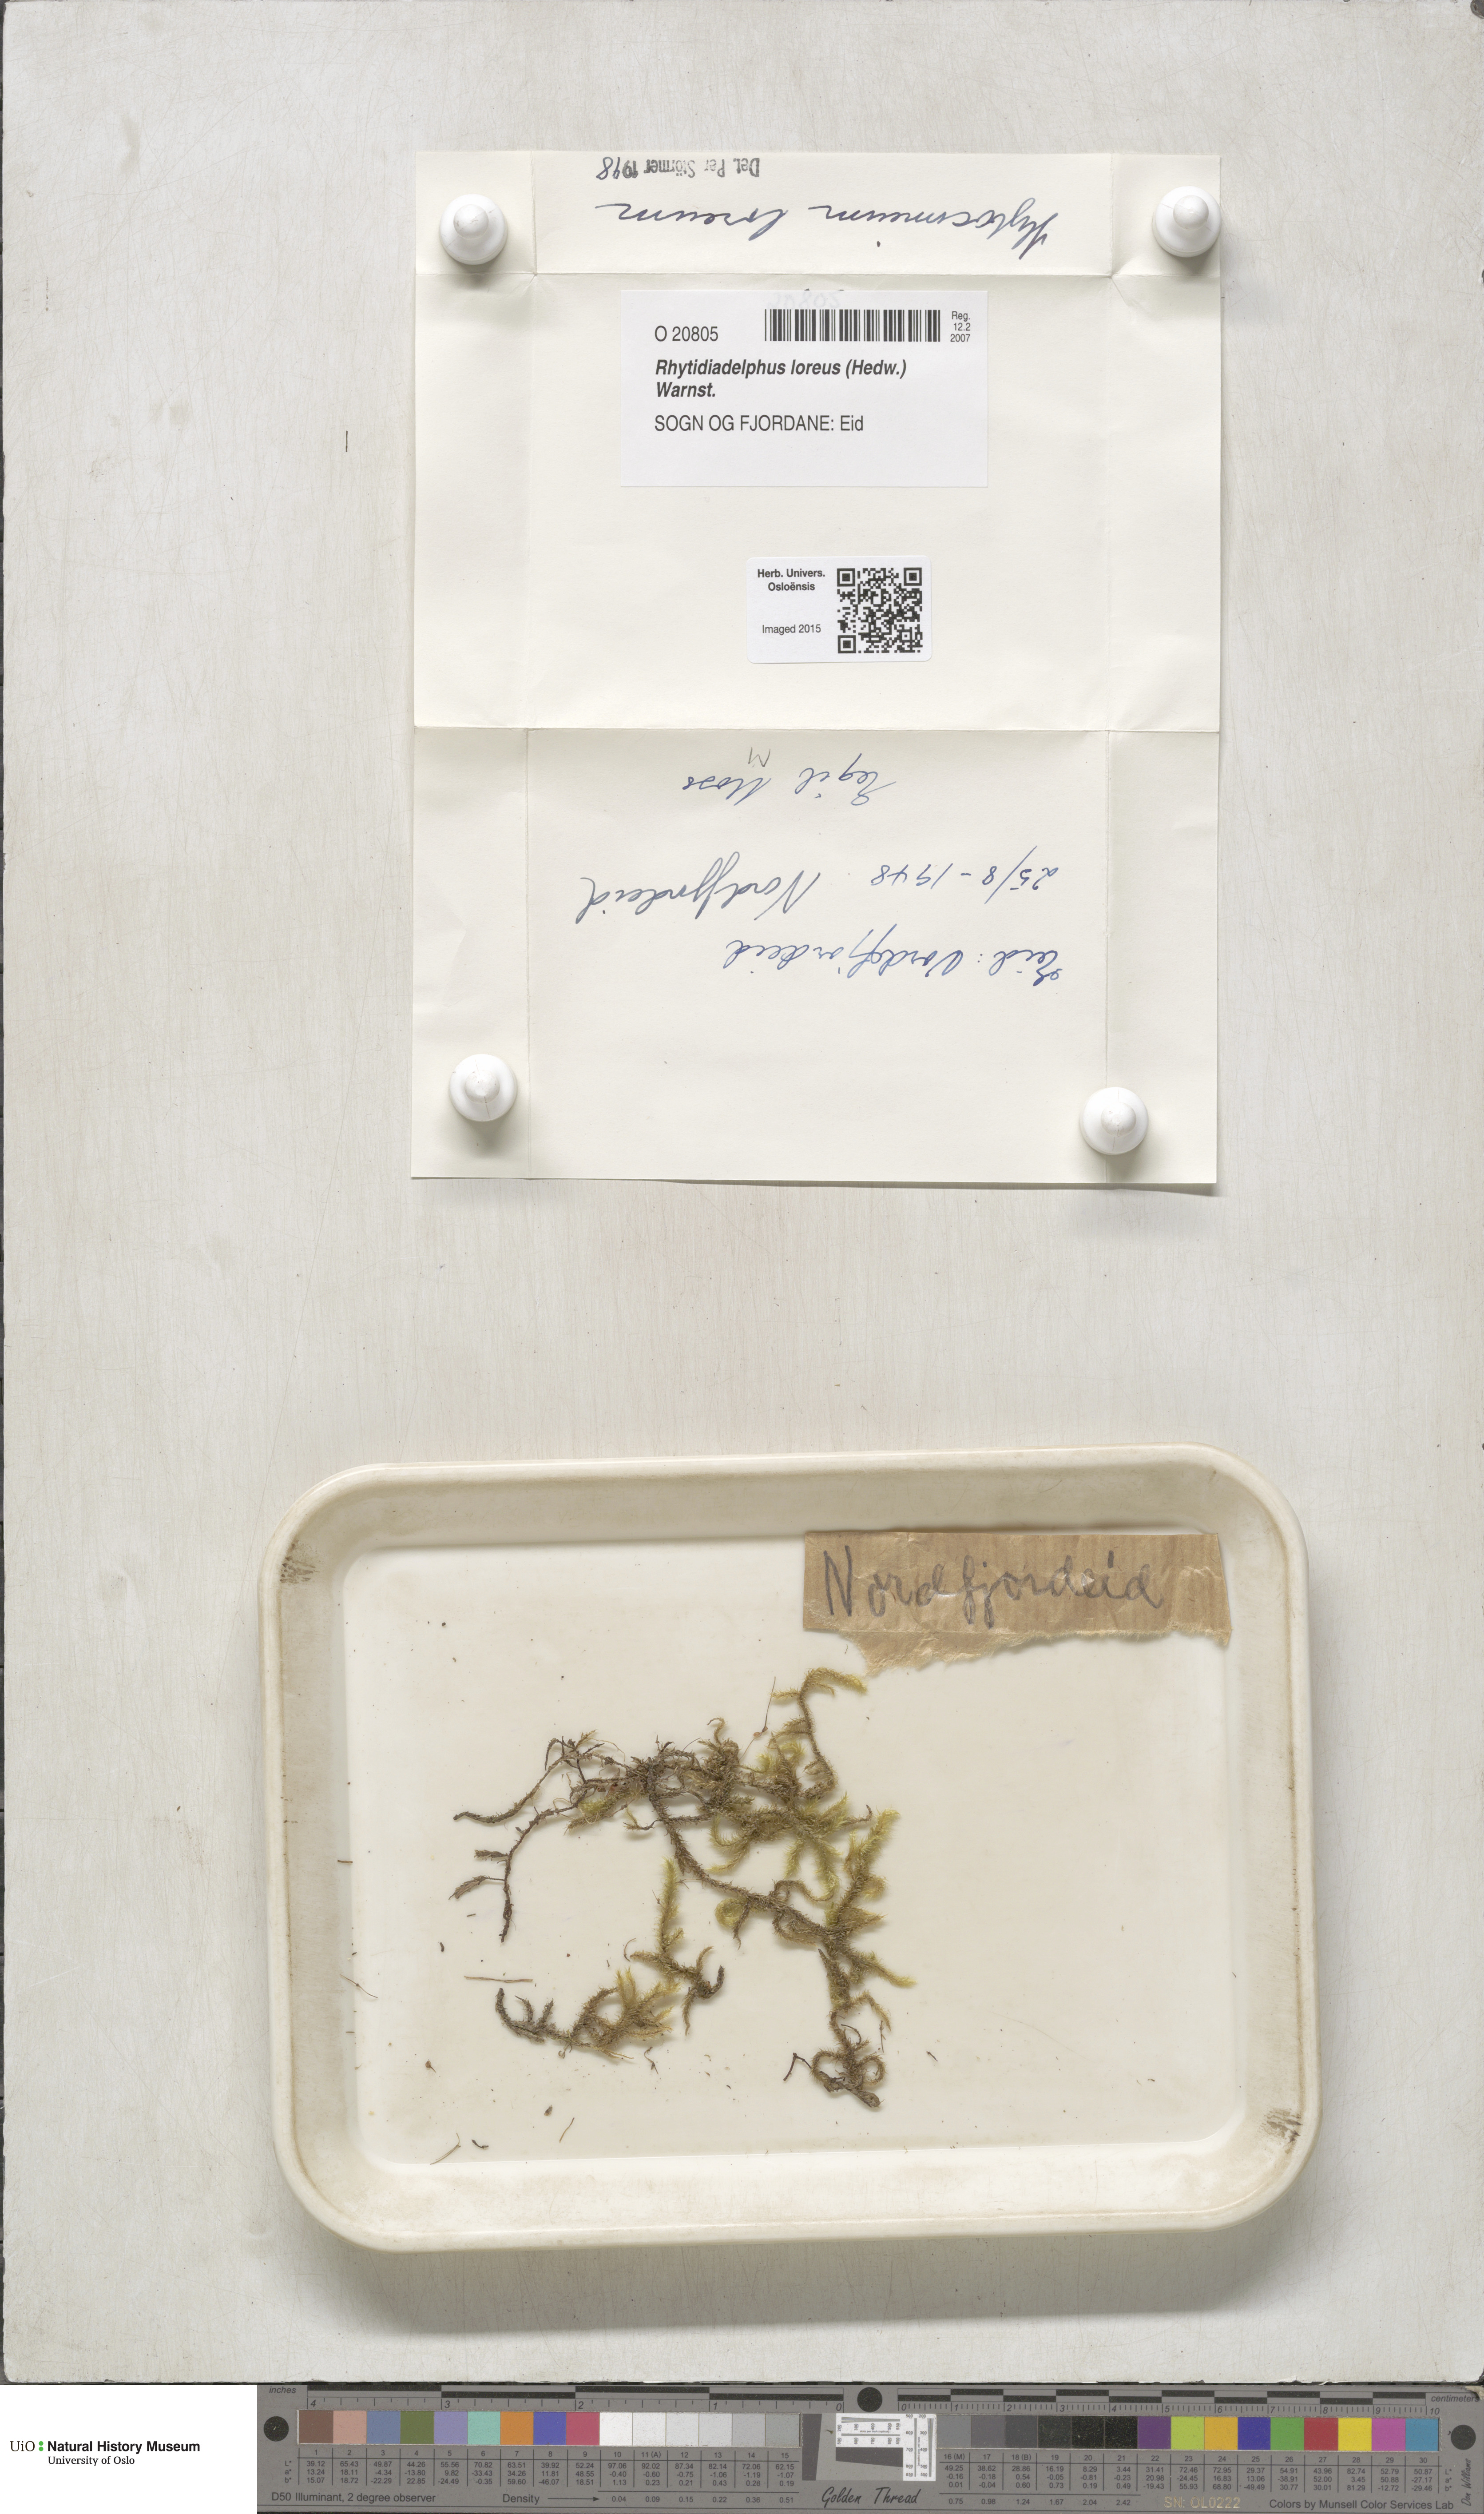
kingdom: Plantae
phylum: Bryophyta
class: Bryopsida
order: Hypnales
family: Hylocomiaceae
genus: Rhytidiadelphus
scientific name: Rhytidiadelphus loreus
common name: Lanky moss
